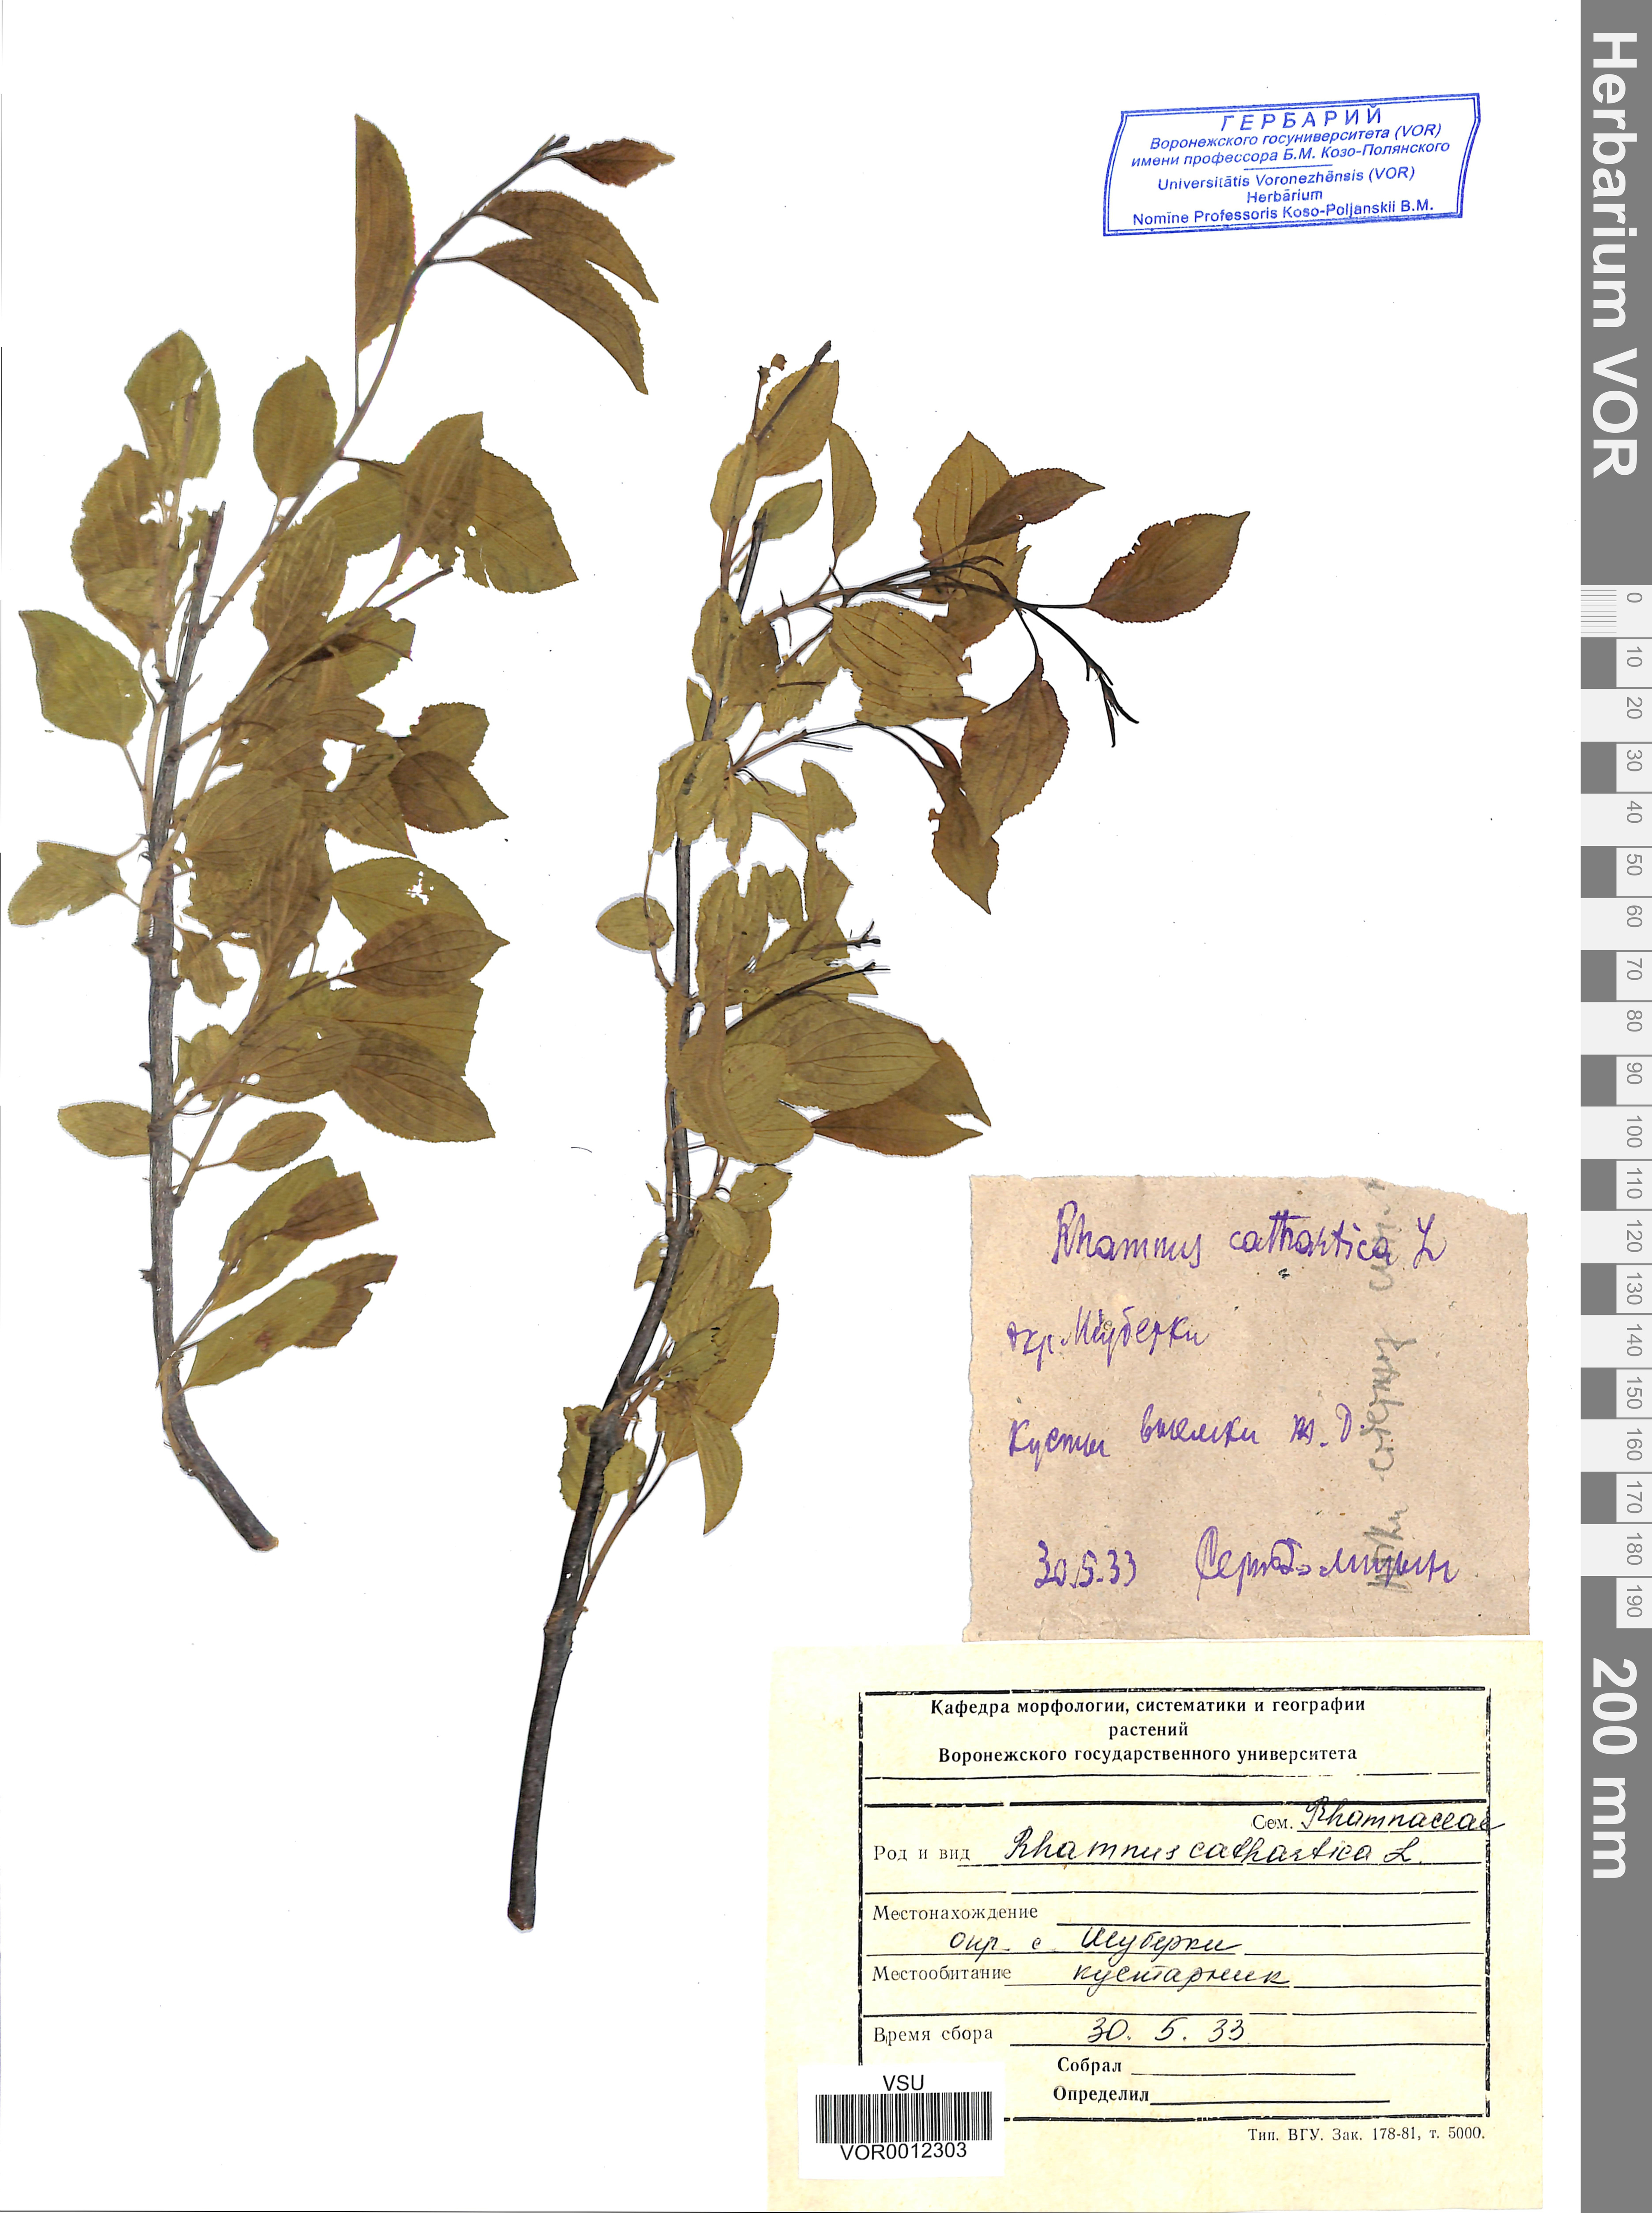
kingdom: Plantae
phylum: Tracheophyta
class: Magnoliopsida
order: Rosales
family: Rhamnaceae
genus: Rhamnus
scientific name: Rhamnus cathartica
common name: Common buckthorn
